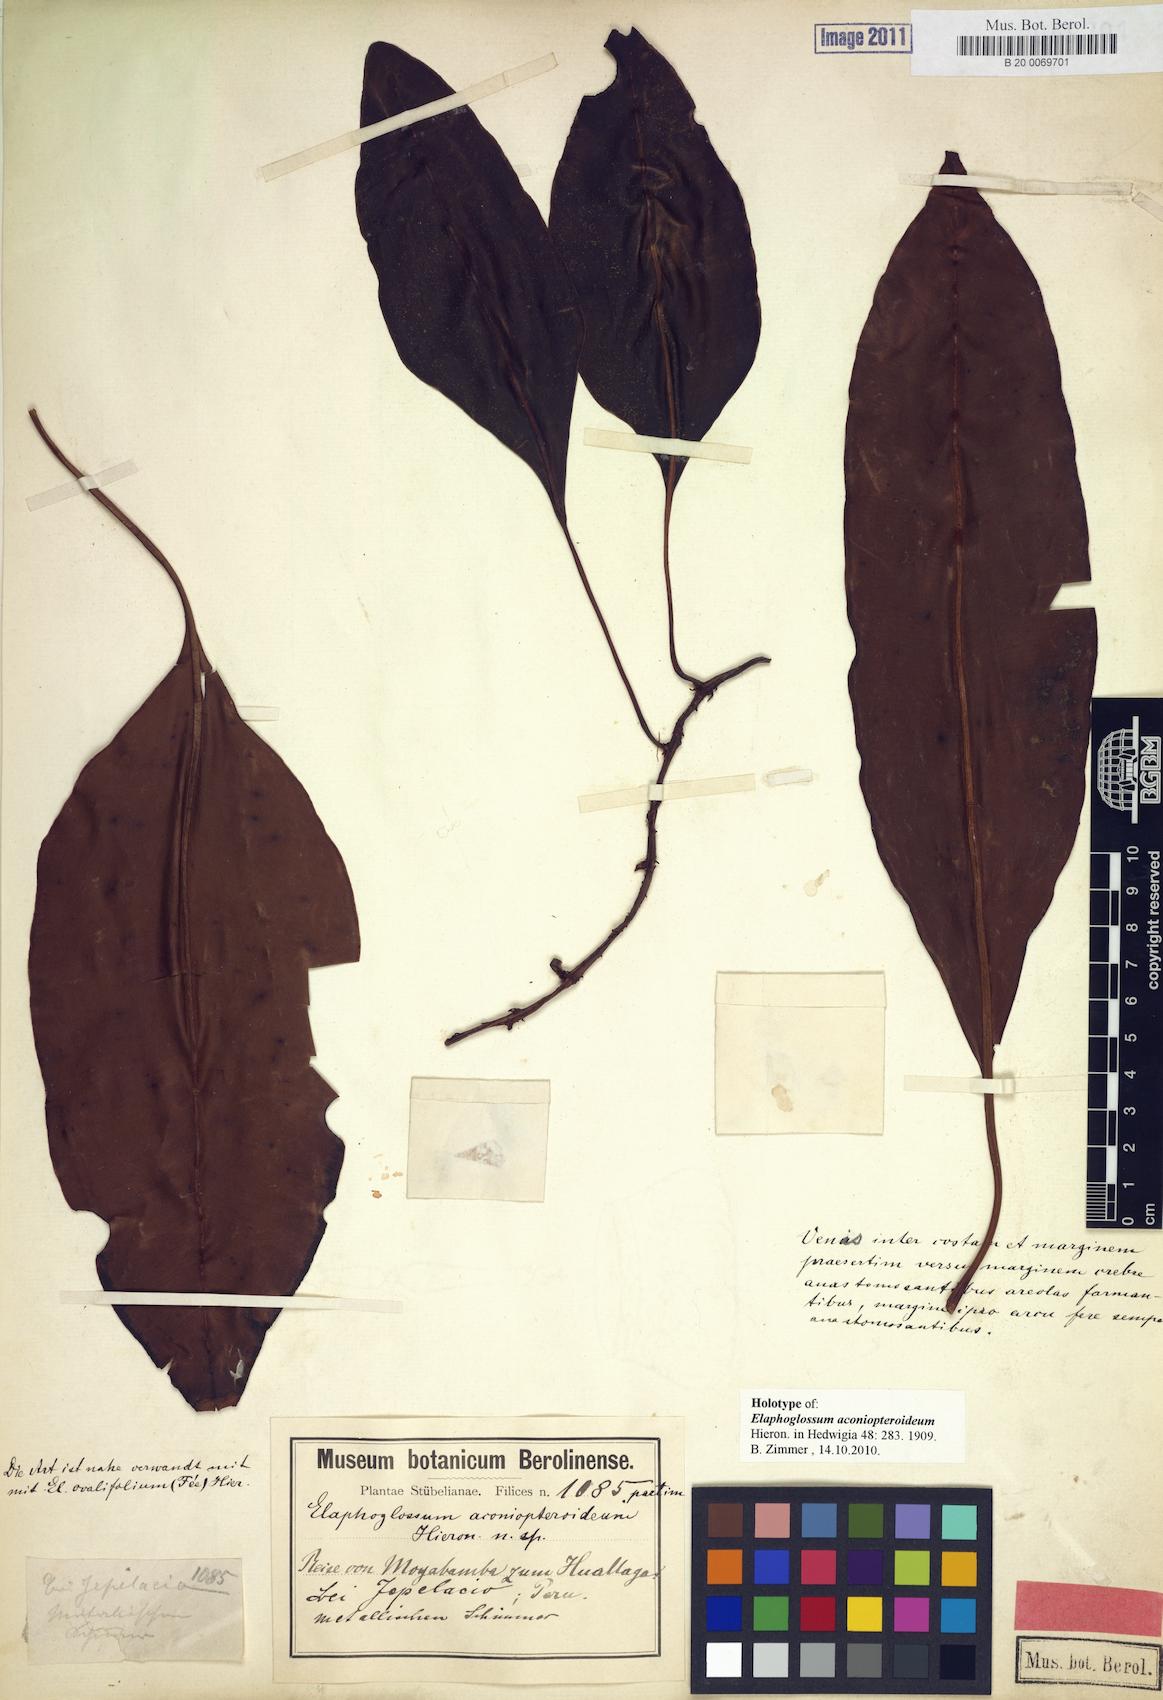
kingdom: Plantae
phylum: Tracheophyta
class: Polypodiopsida
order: Polypodiales
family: Dryopteridaceae
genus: Elaphoglossum
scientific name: Elaphoglossum aconiopteroideum
